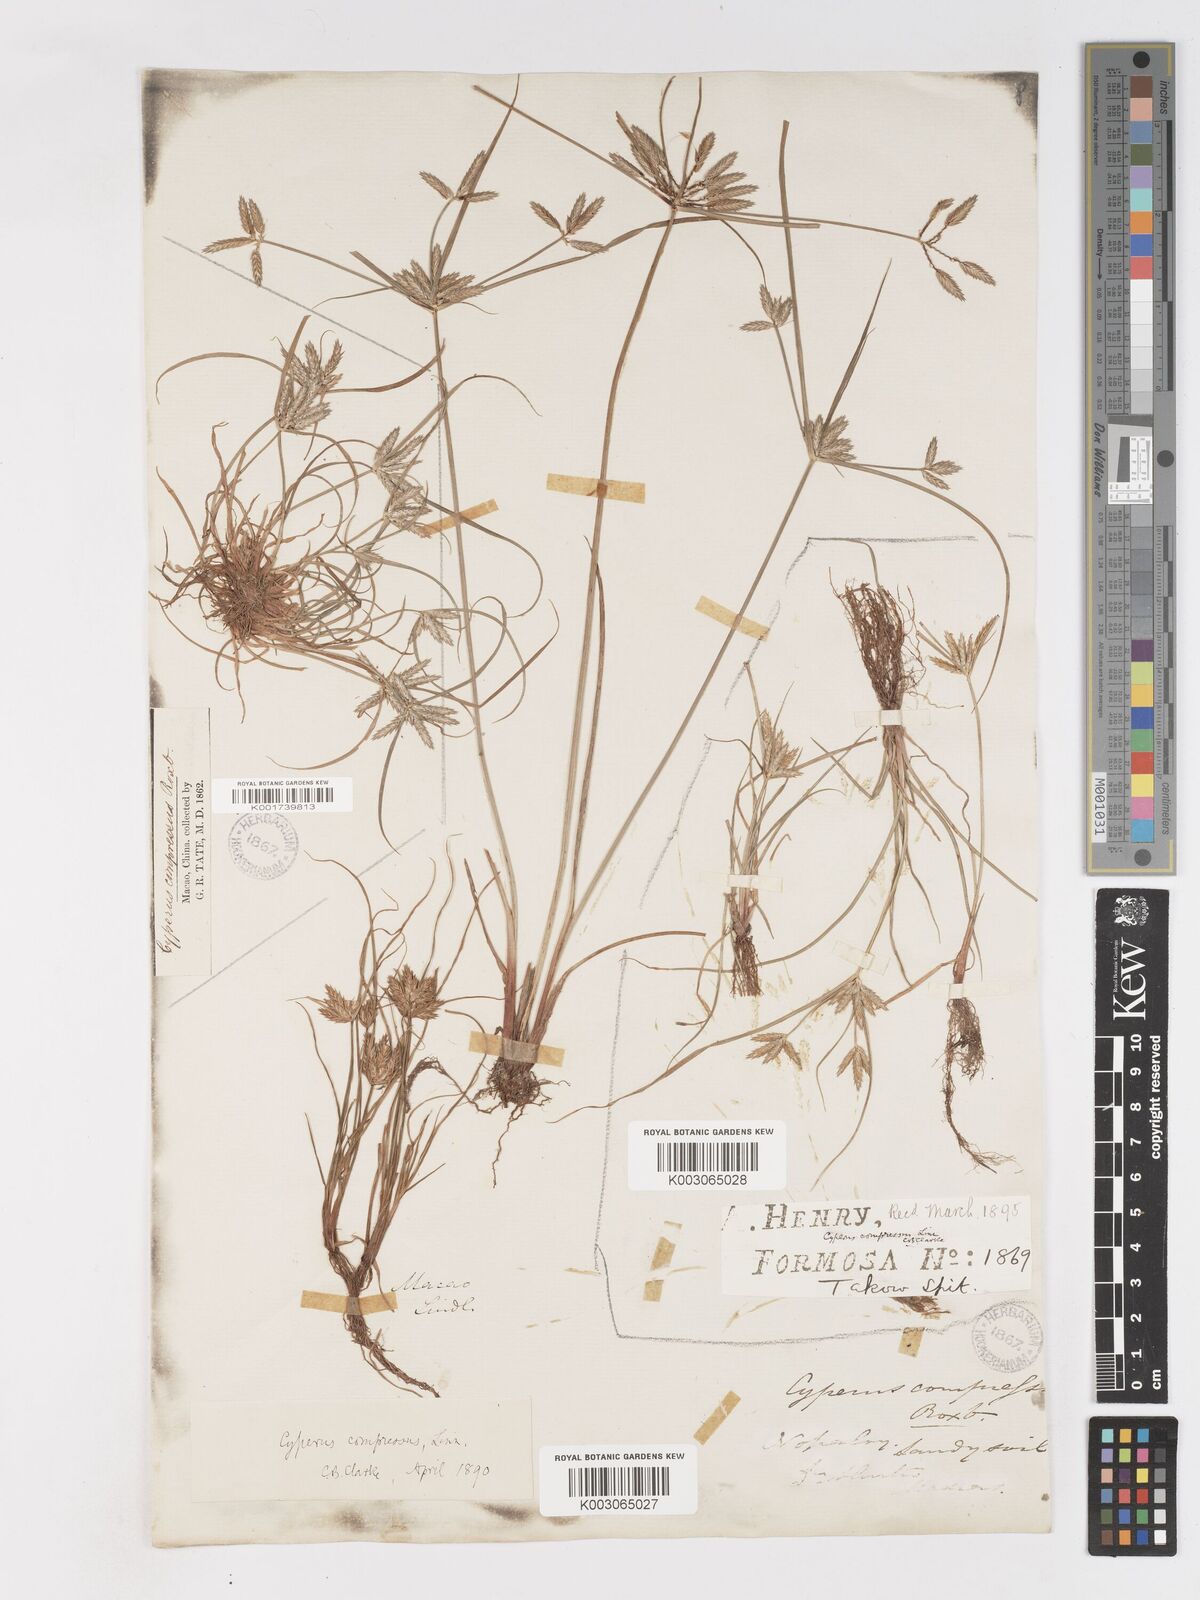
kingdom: Plantae
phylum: Tracheophyta
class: Liliopsida
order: Poales
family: Cyperaceae
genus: Cyperus
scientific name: Cyperus compressus
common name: Poorland flatsedge
